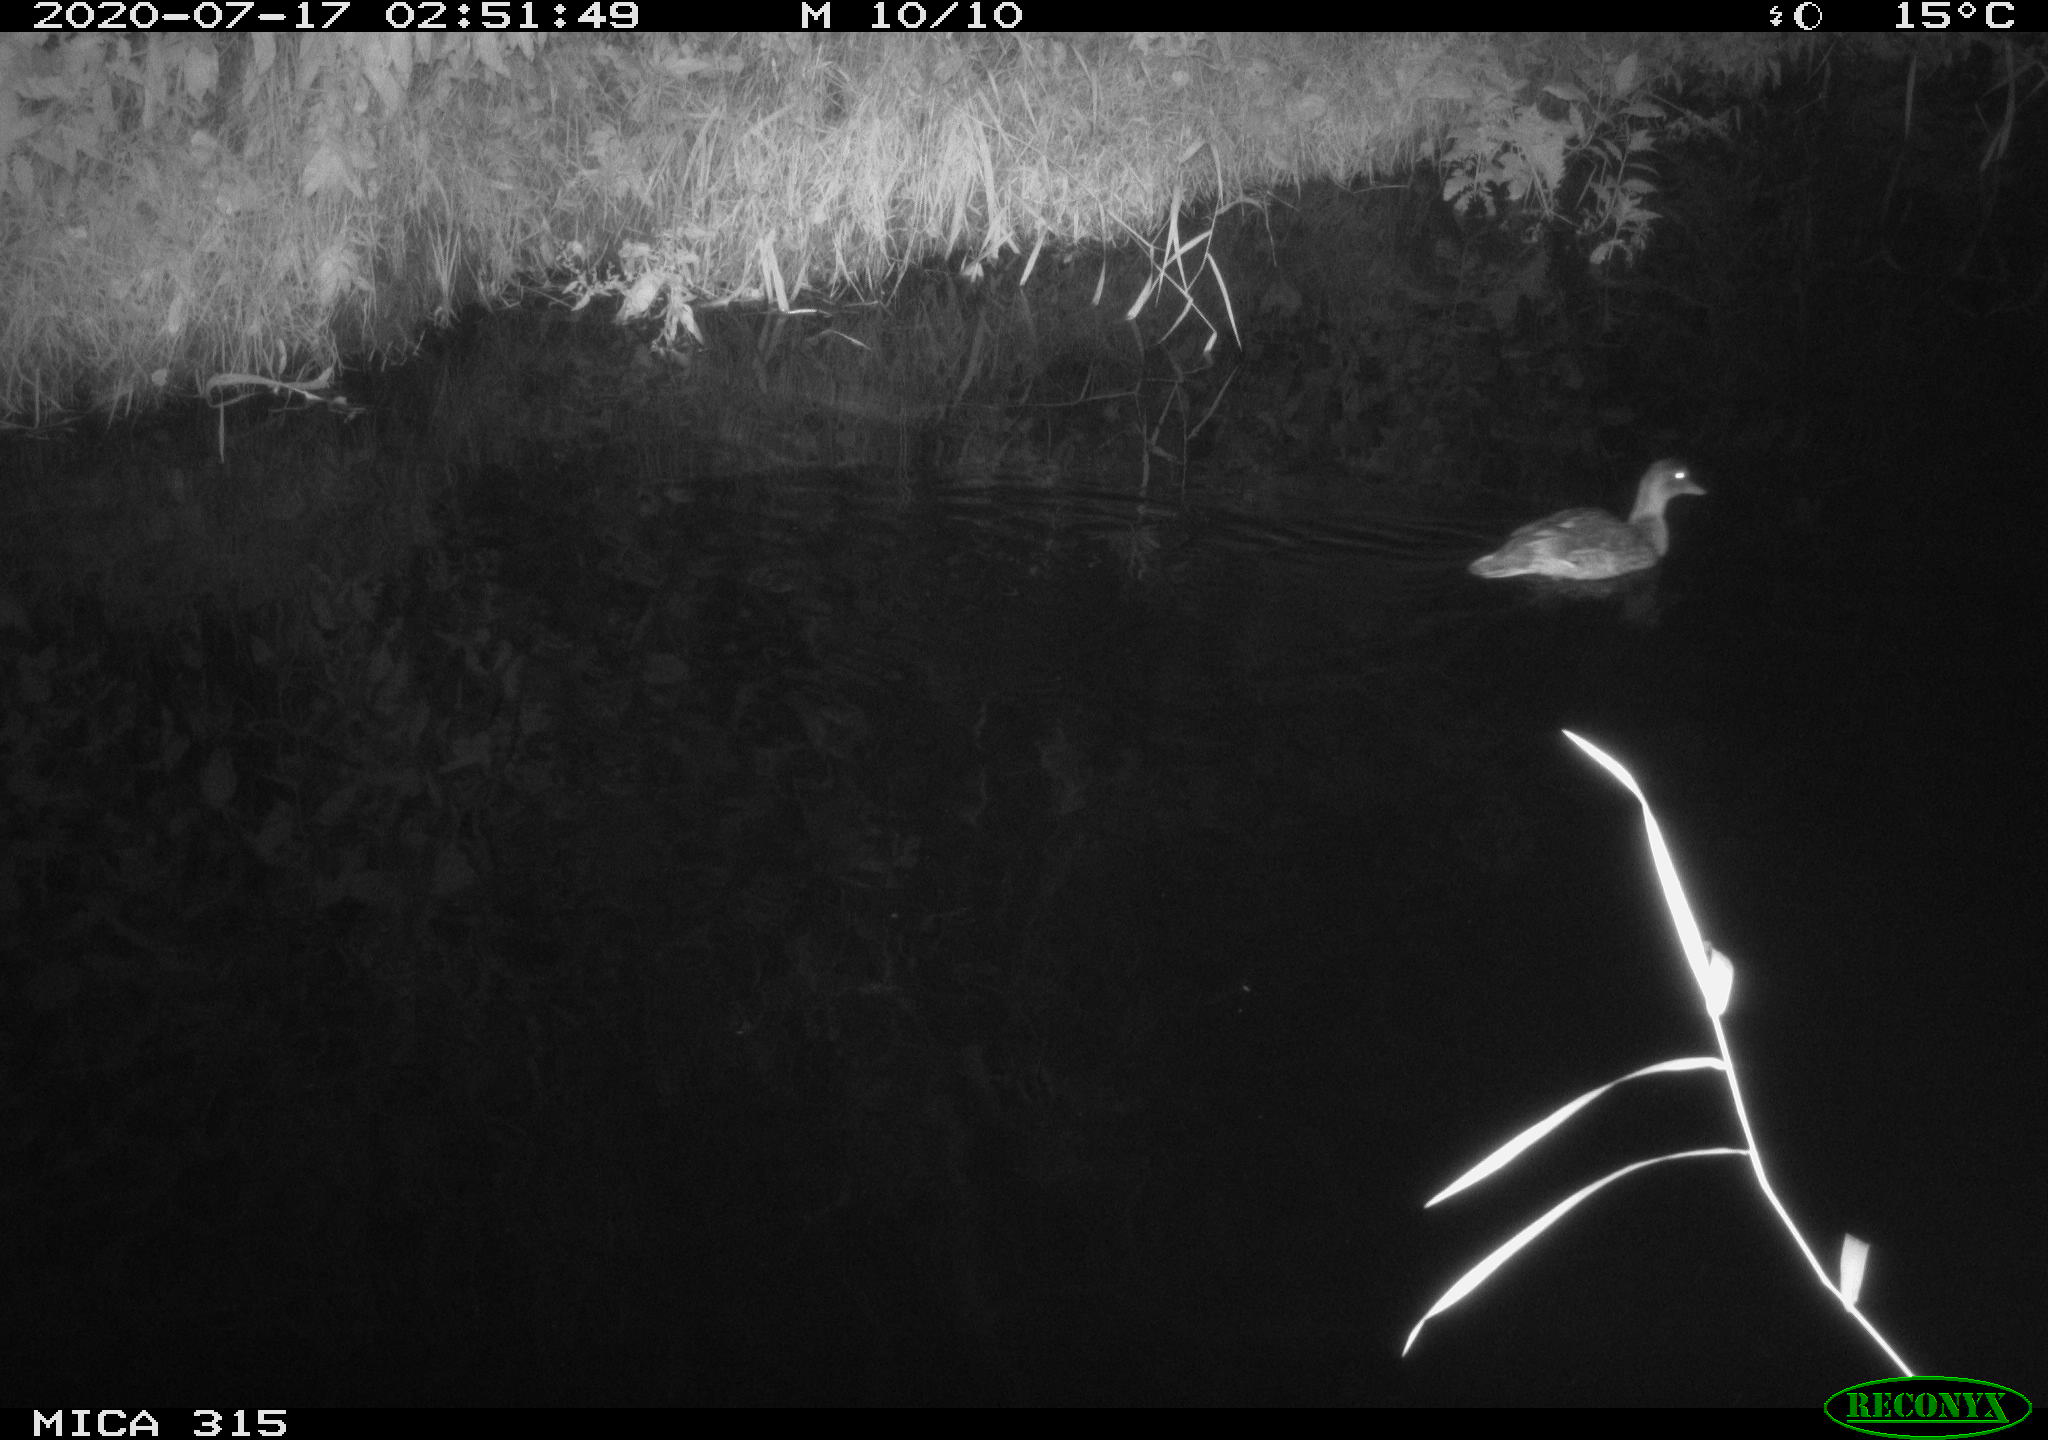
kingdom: Animalia
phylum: Chordata
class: Aves
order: Anseriformes
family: Anatidae
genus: Anas
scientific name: Anas platyrhynchos
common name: Mallard
